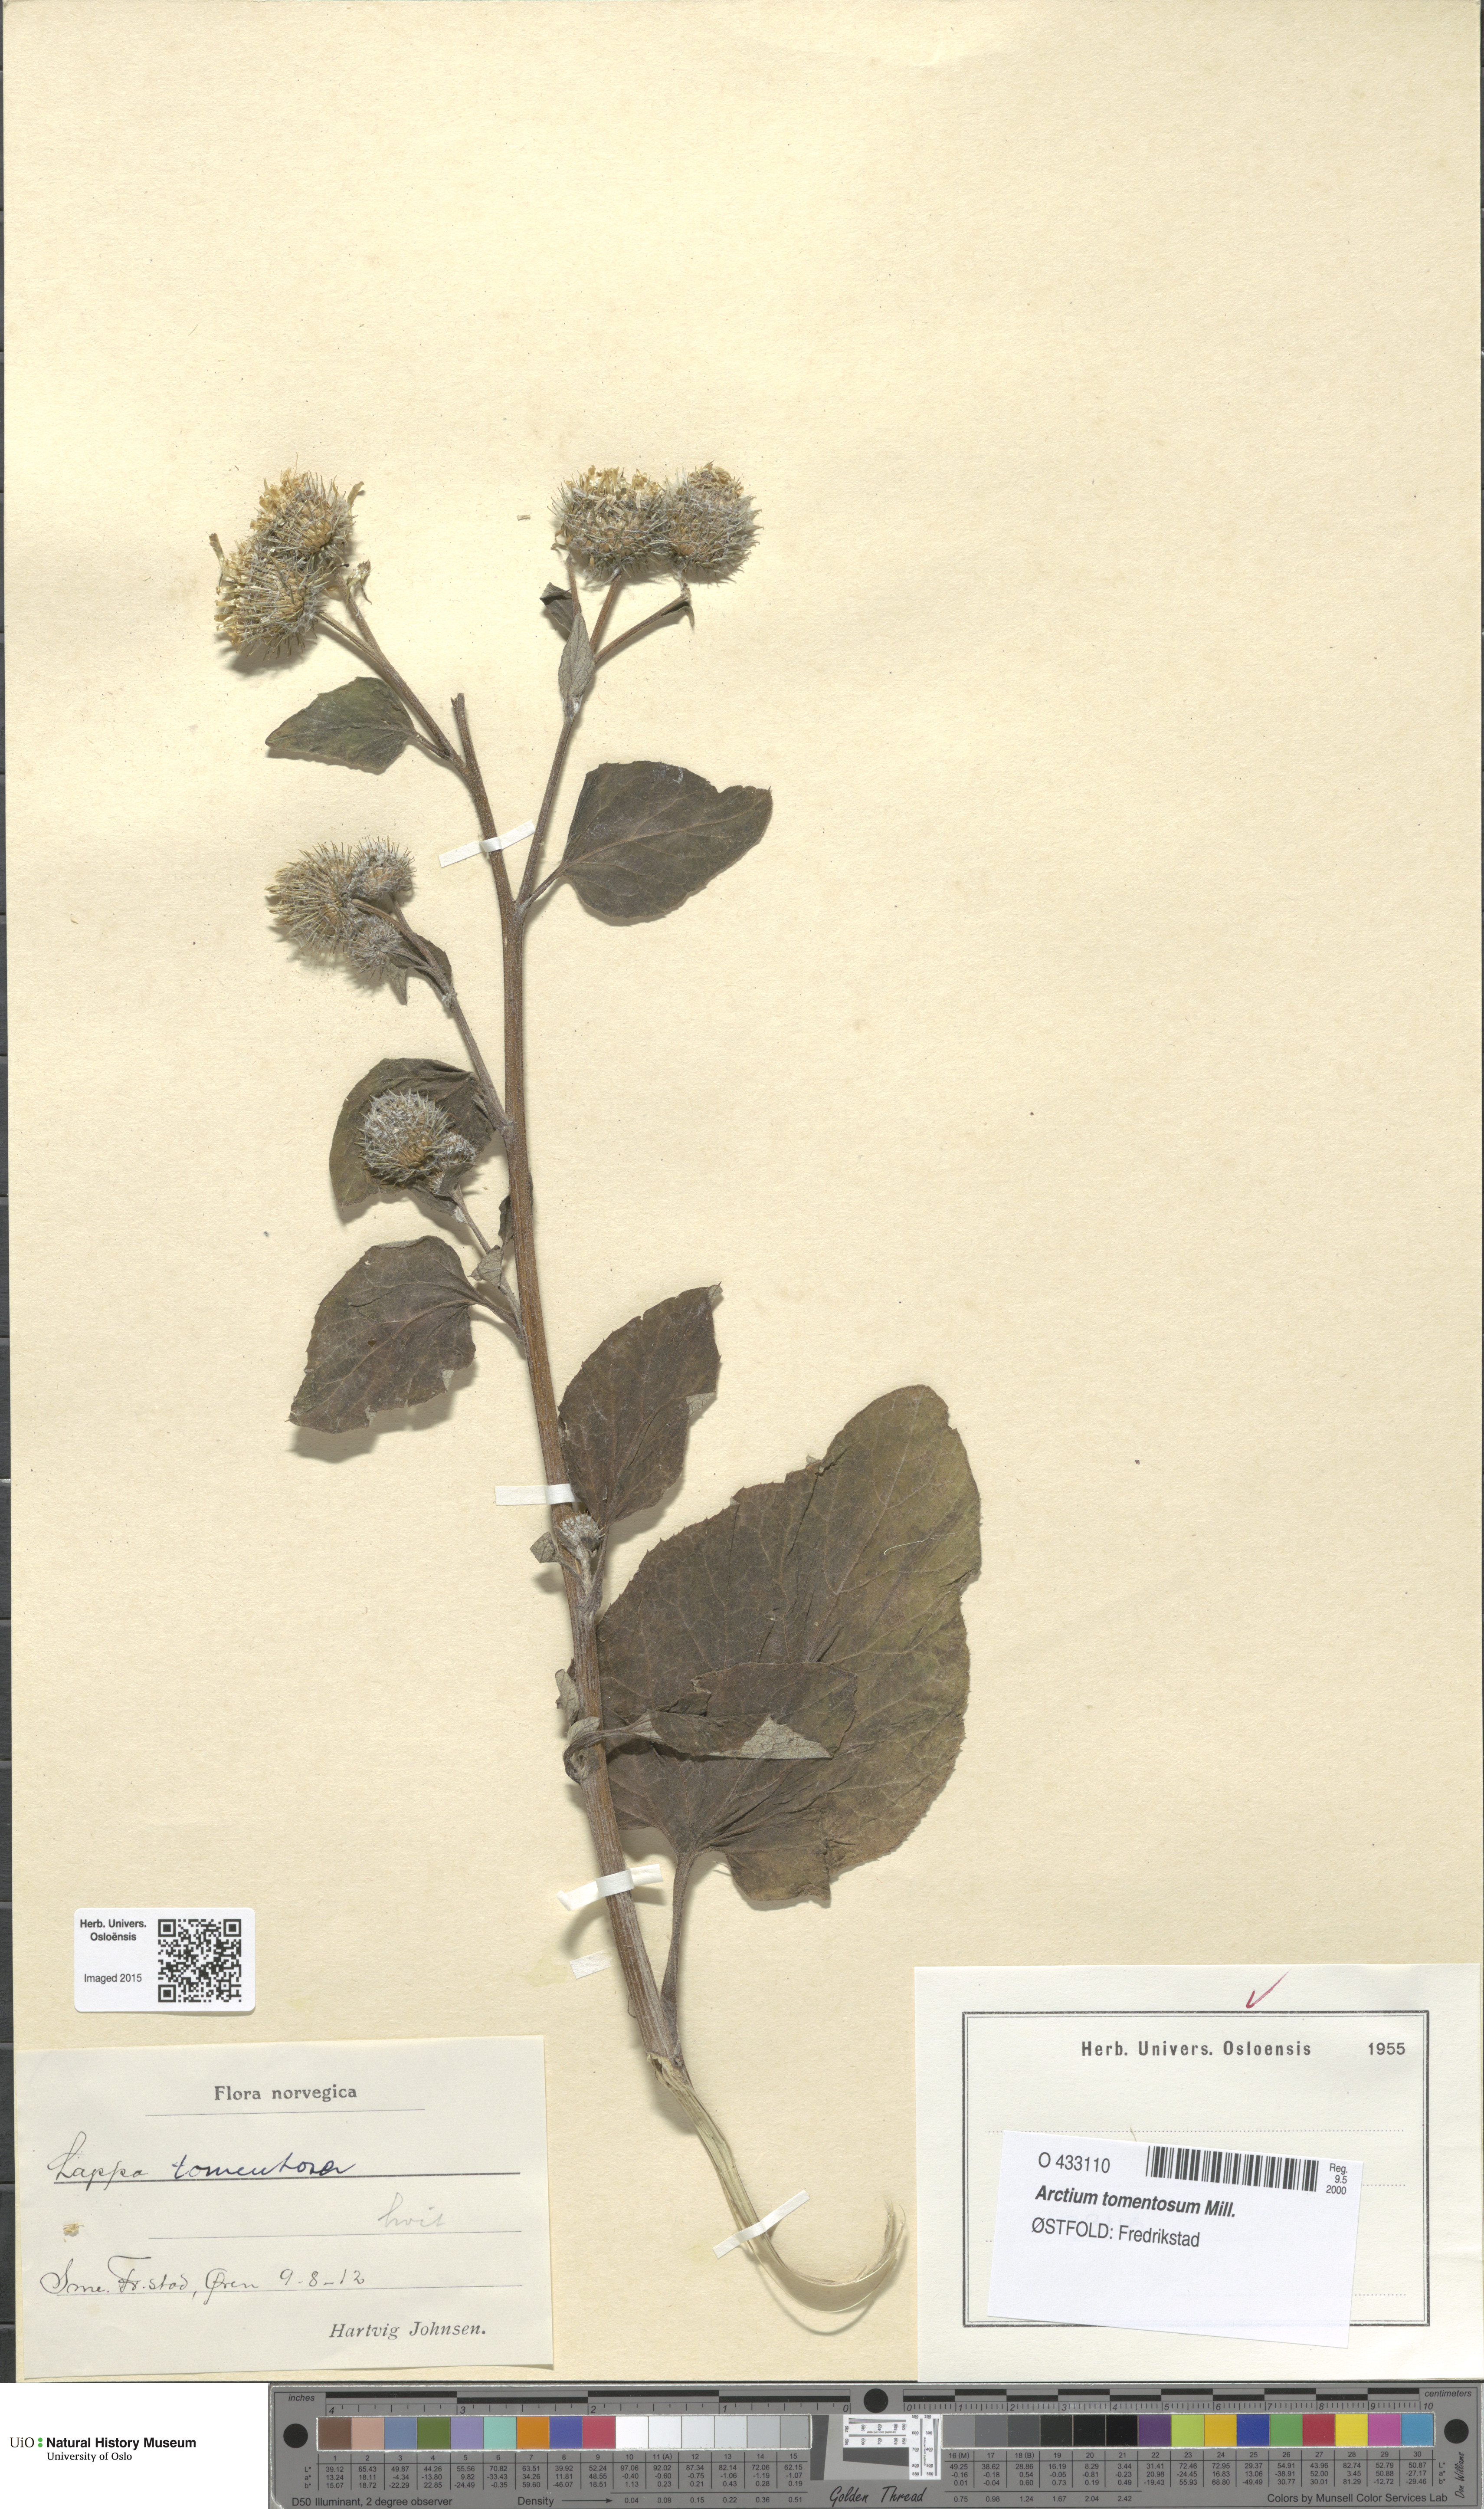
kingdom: Plantae
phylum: Tracheophyta
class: Magnoliopsida
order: Asterales
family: Asteraceae
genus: Arctium
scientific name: Arctium tomentosum
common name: Woolly burdock
